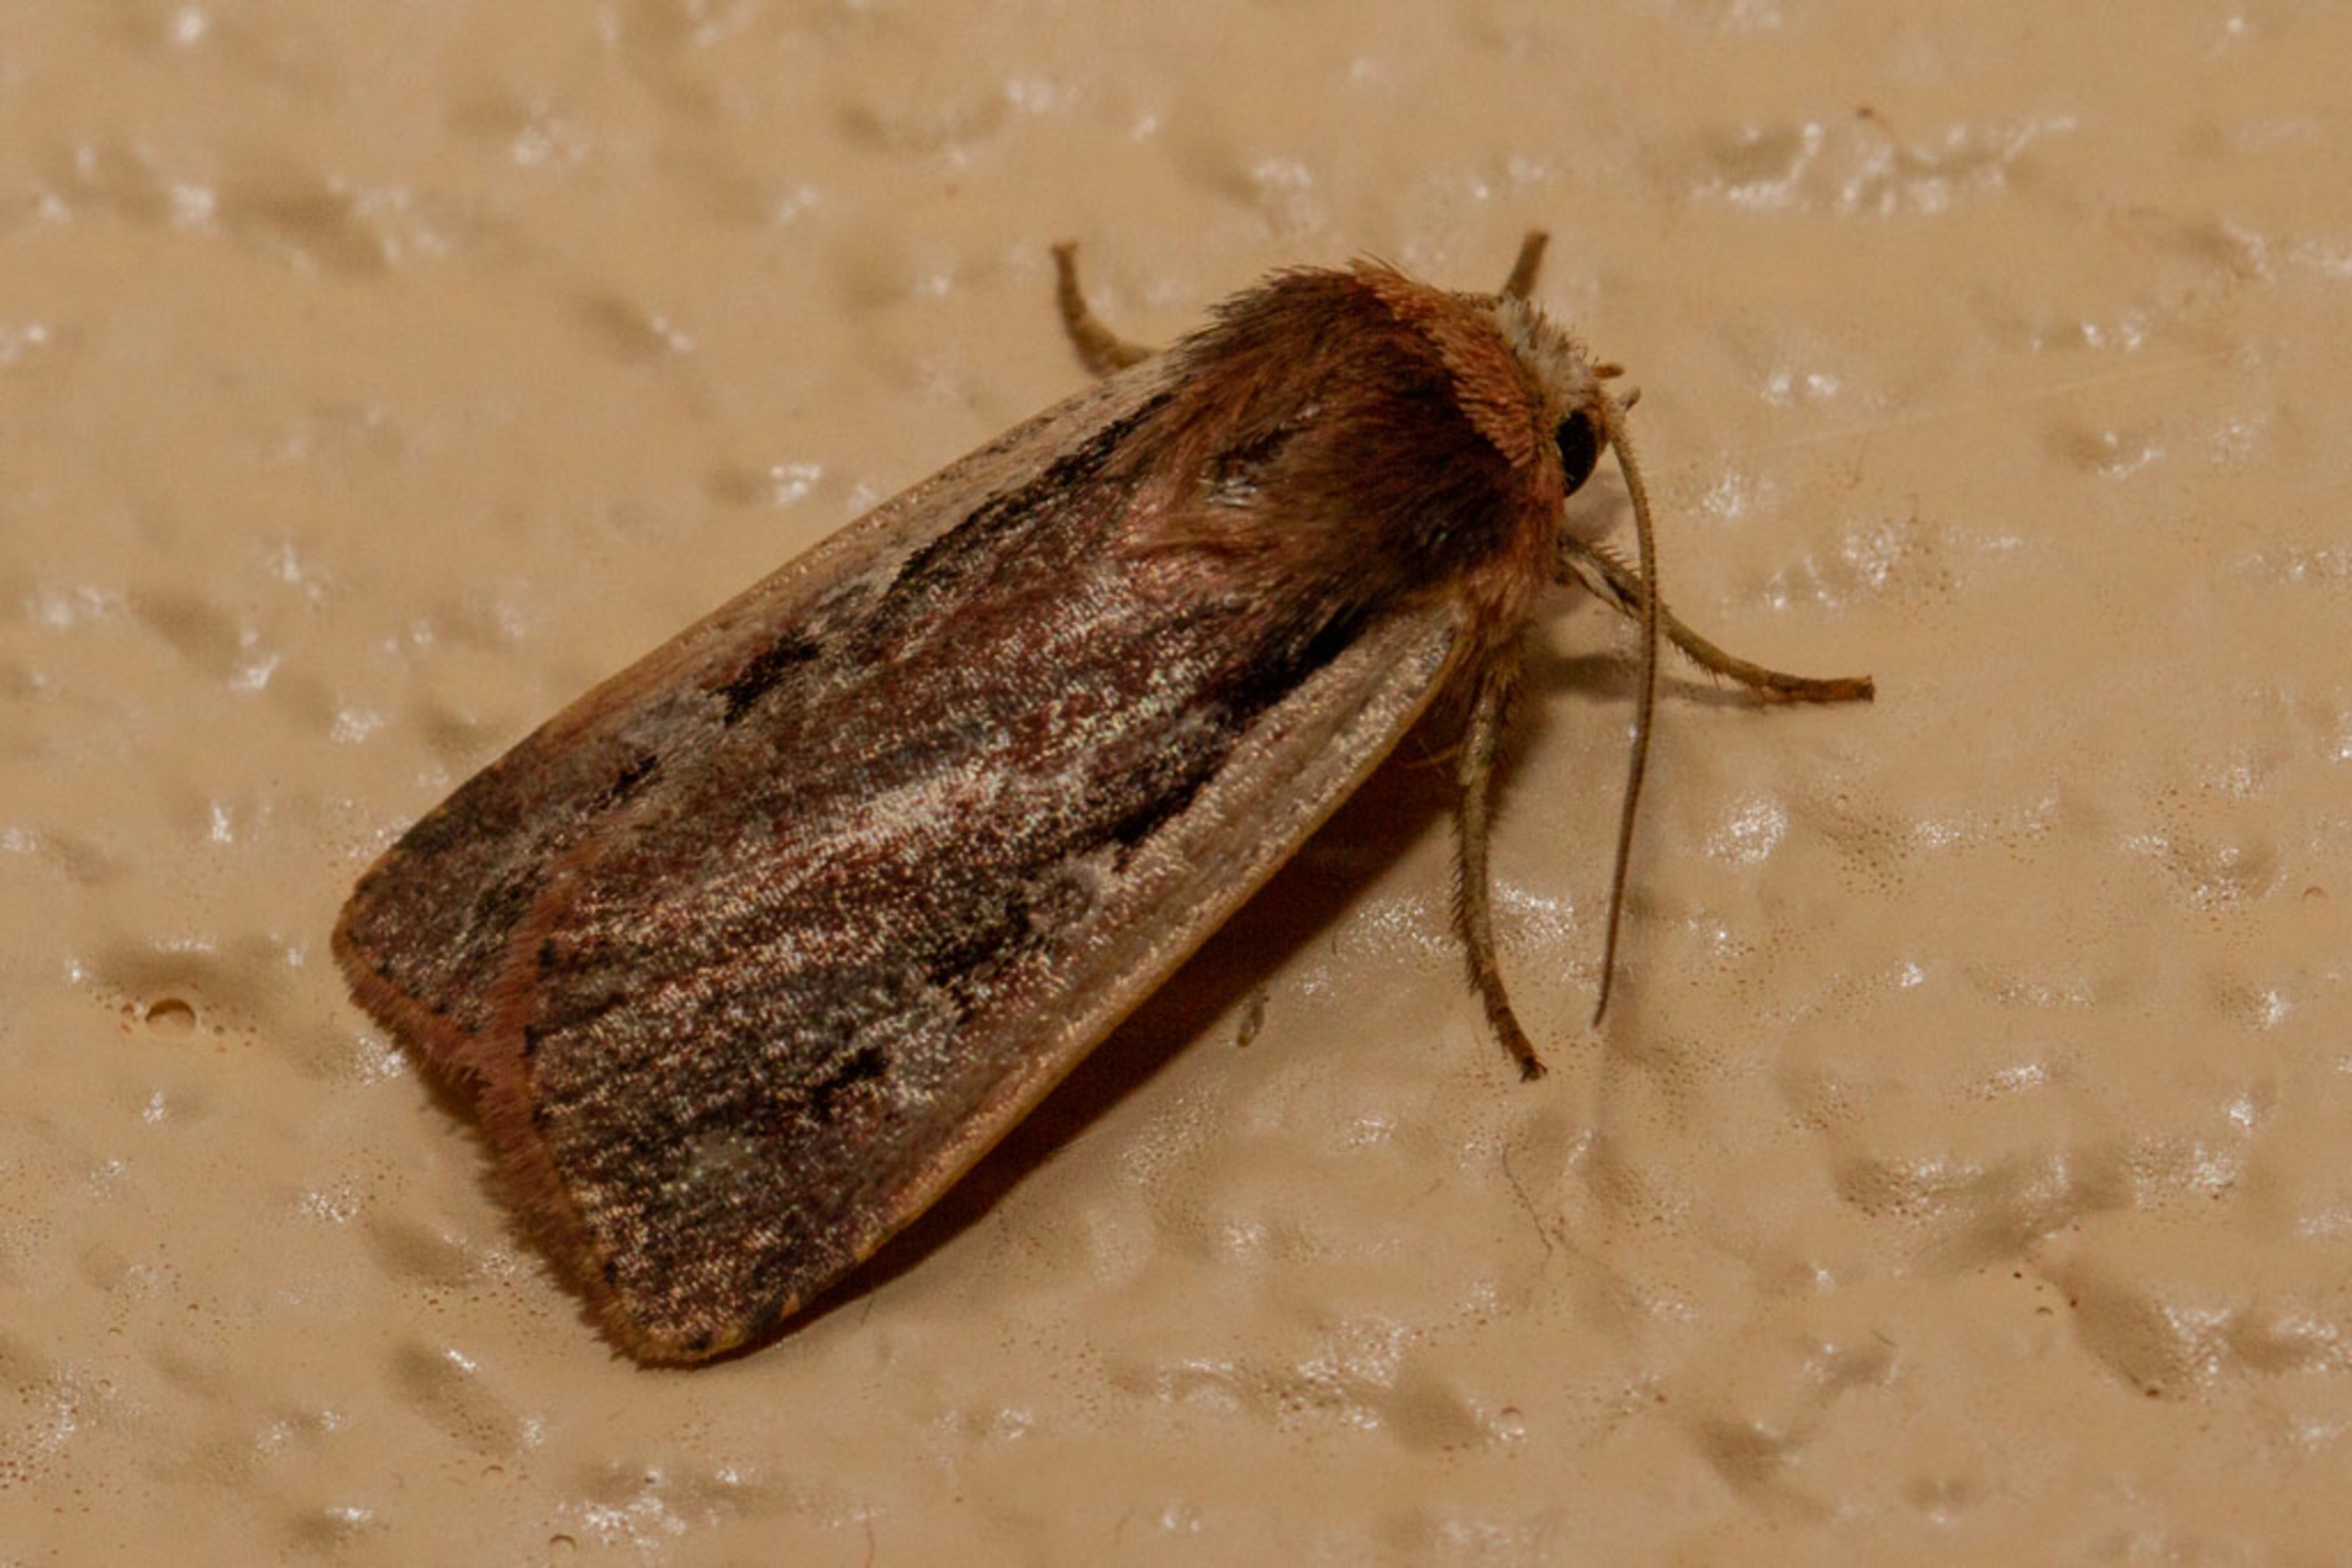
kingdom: Animalia
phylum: Arthropoda
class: Insecta
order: Lepidoptera
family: Noctuidae
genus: Ochropleura
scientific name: Ochropleura plecta
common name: Hvidrandet jordugle
